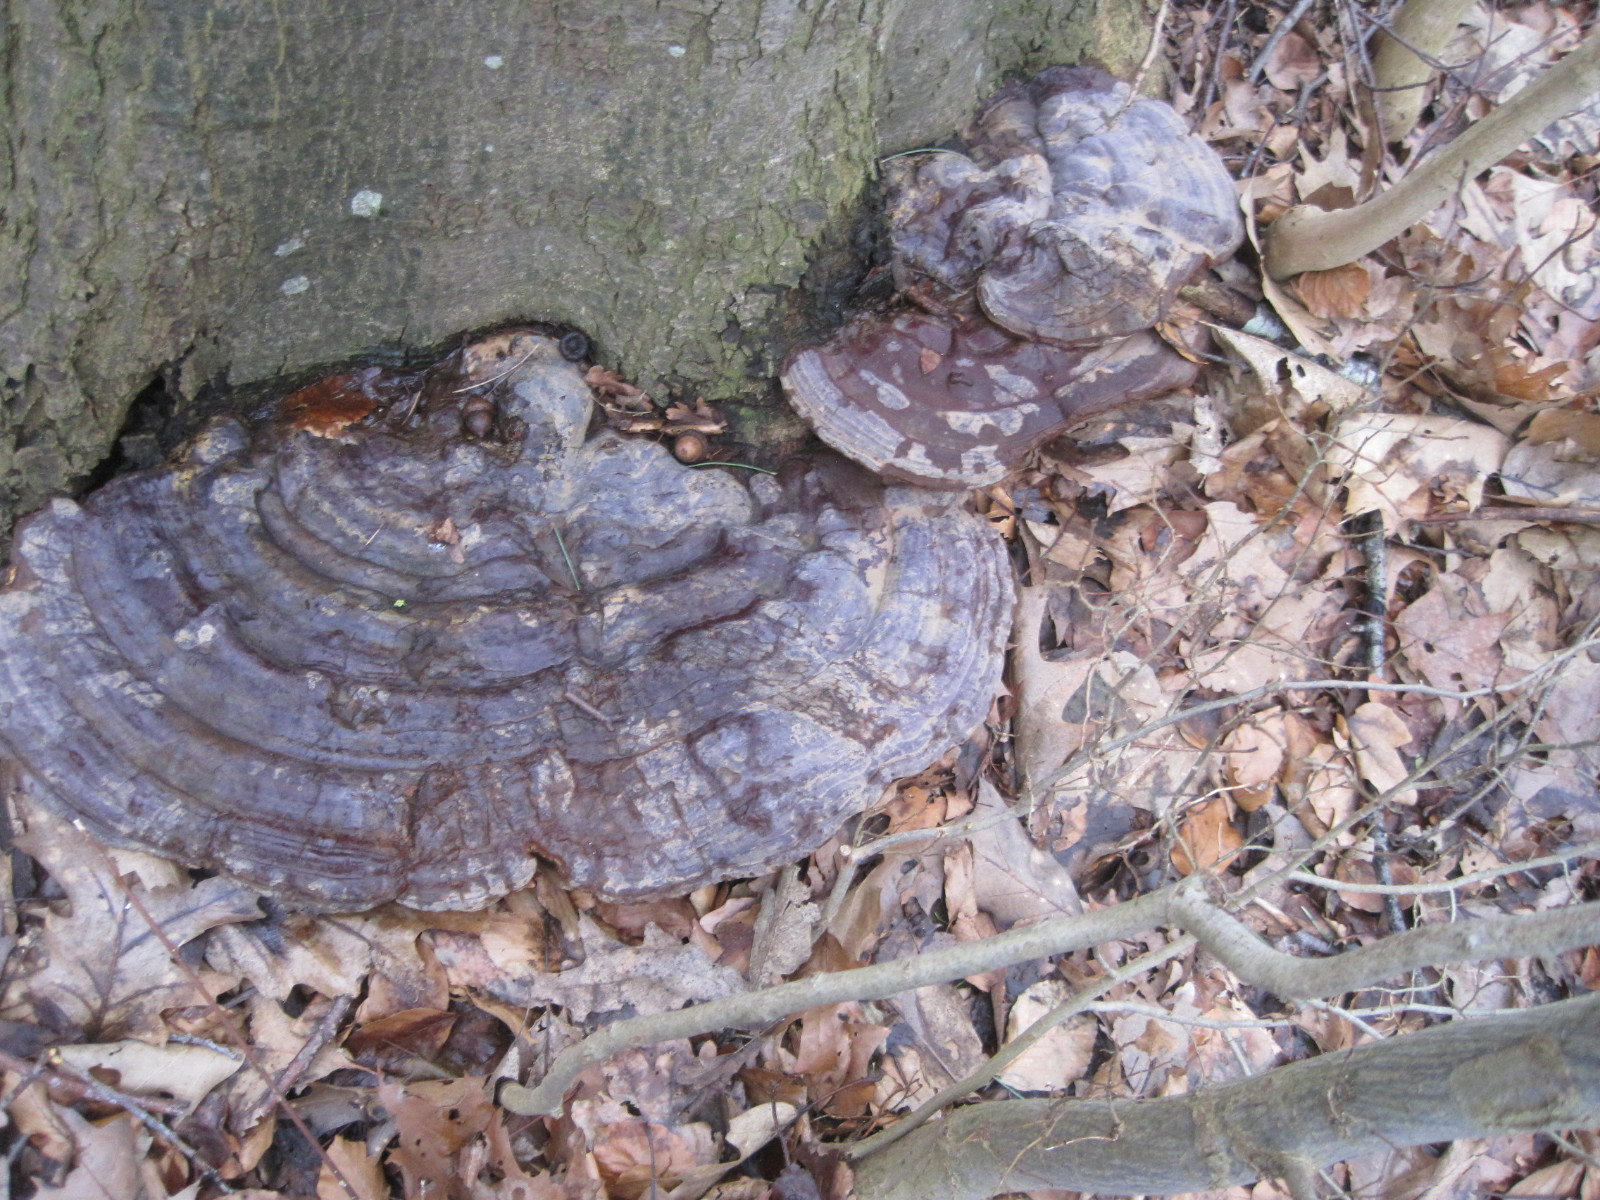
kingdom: Fungi
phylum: Basidiomycota
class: Agaricomycetes
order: Polyporales
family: Polyporaceae
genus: Ganoderma
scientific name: Ganoderma pfeifferi
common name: kobberrød lakporesvamp
